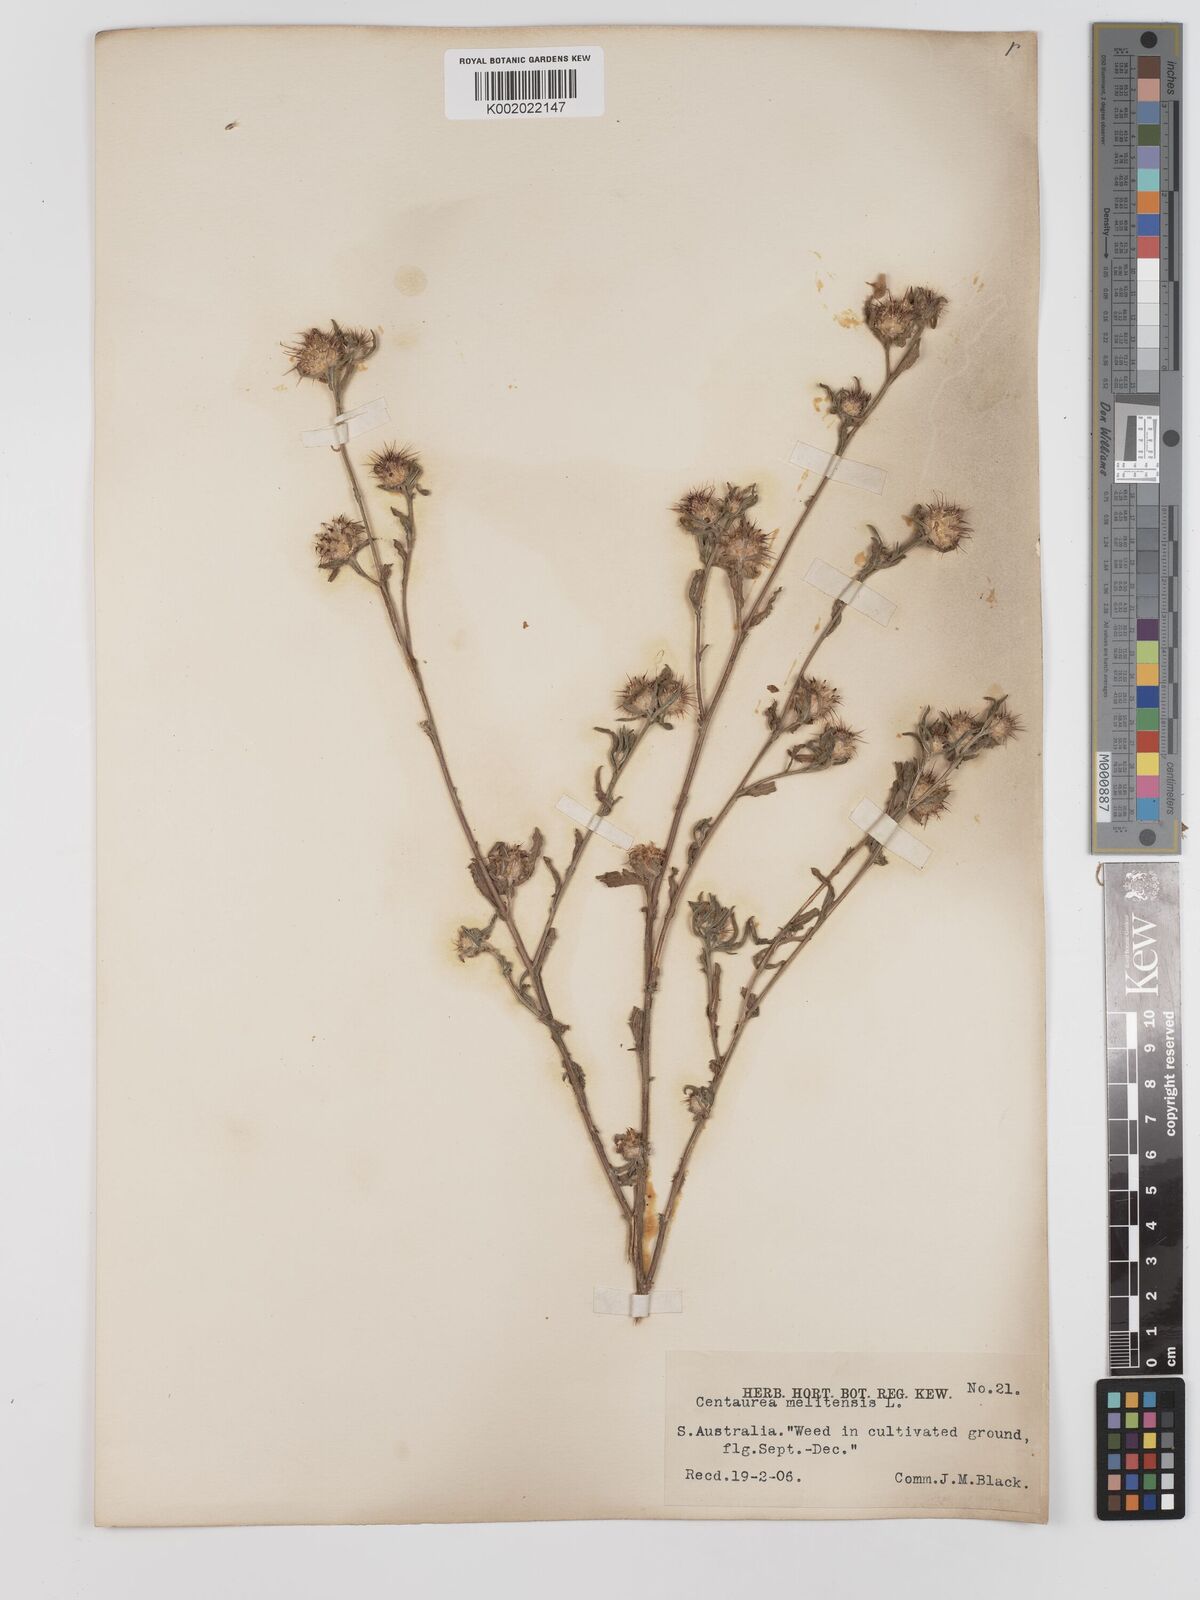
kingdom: Plantae
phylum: Tracheophyta
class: Magnoliopsida
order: Asterales
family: Asteraceae
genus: Centaurea
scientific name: Centaurea melitensis
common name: Maltese star-thistle
